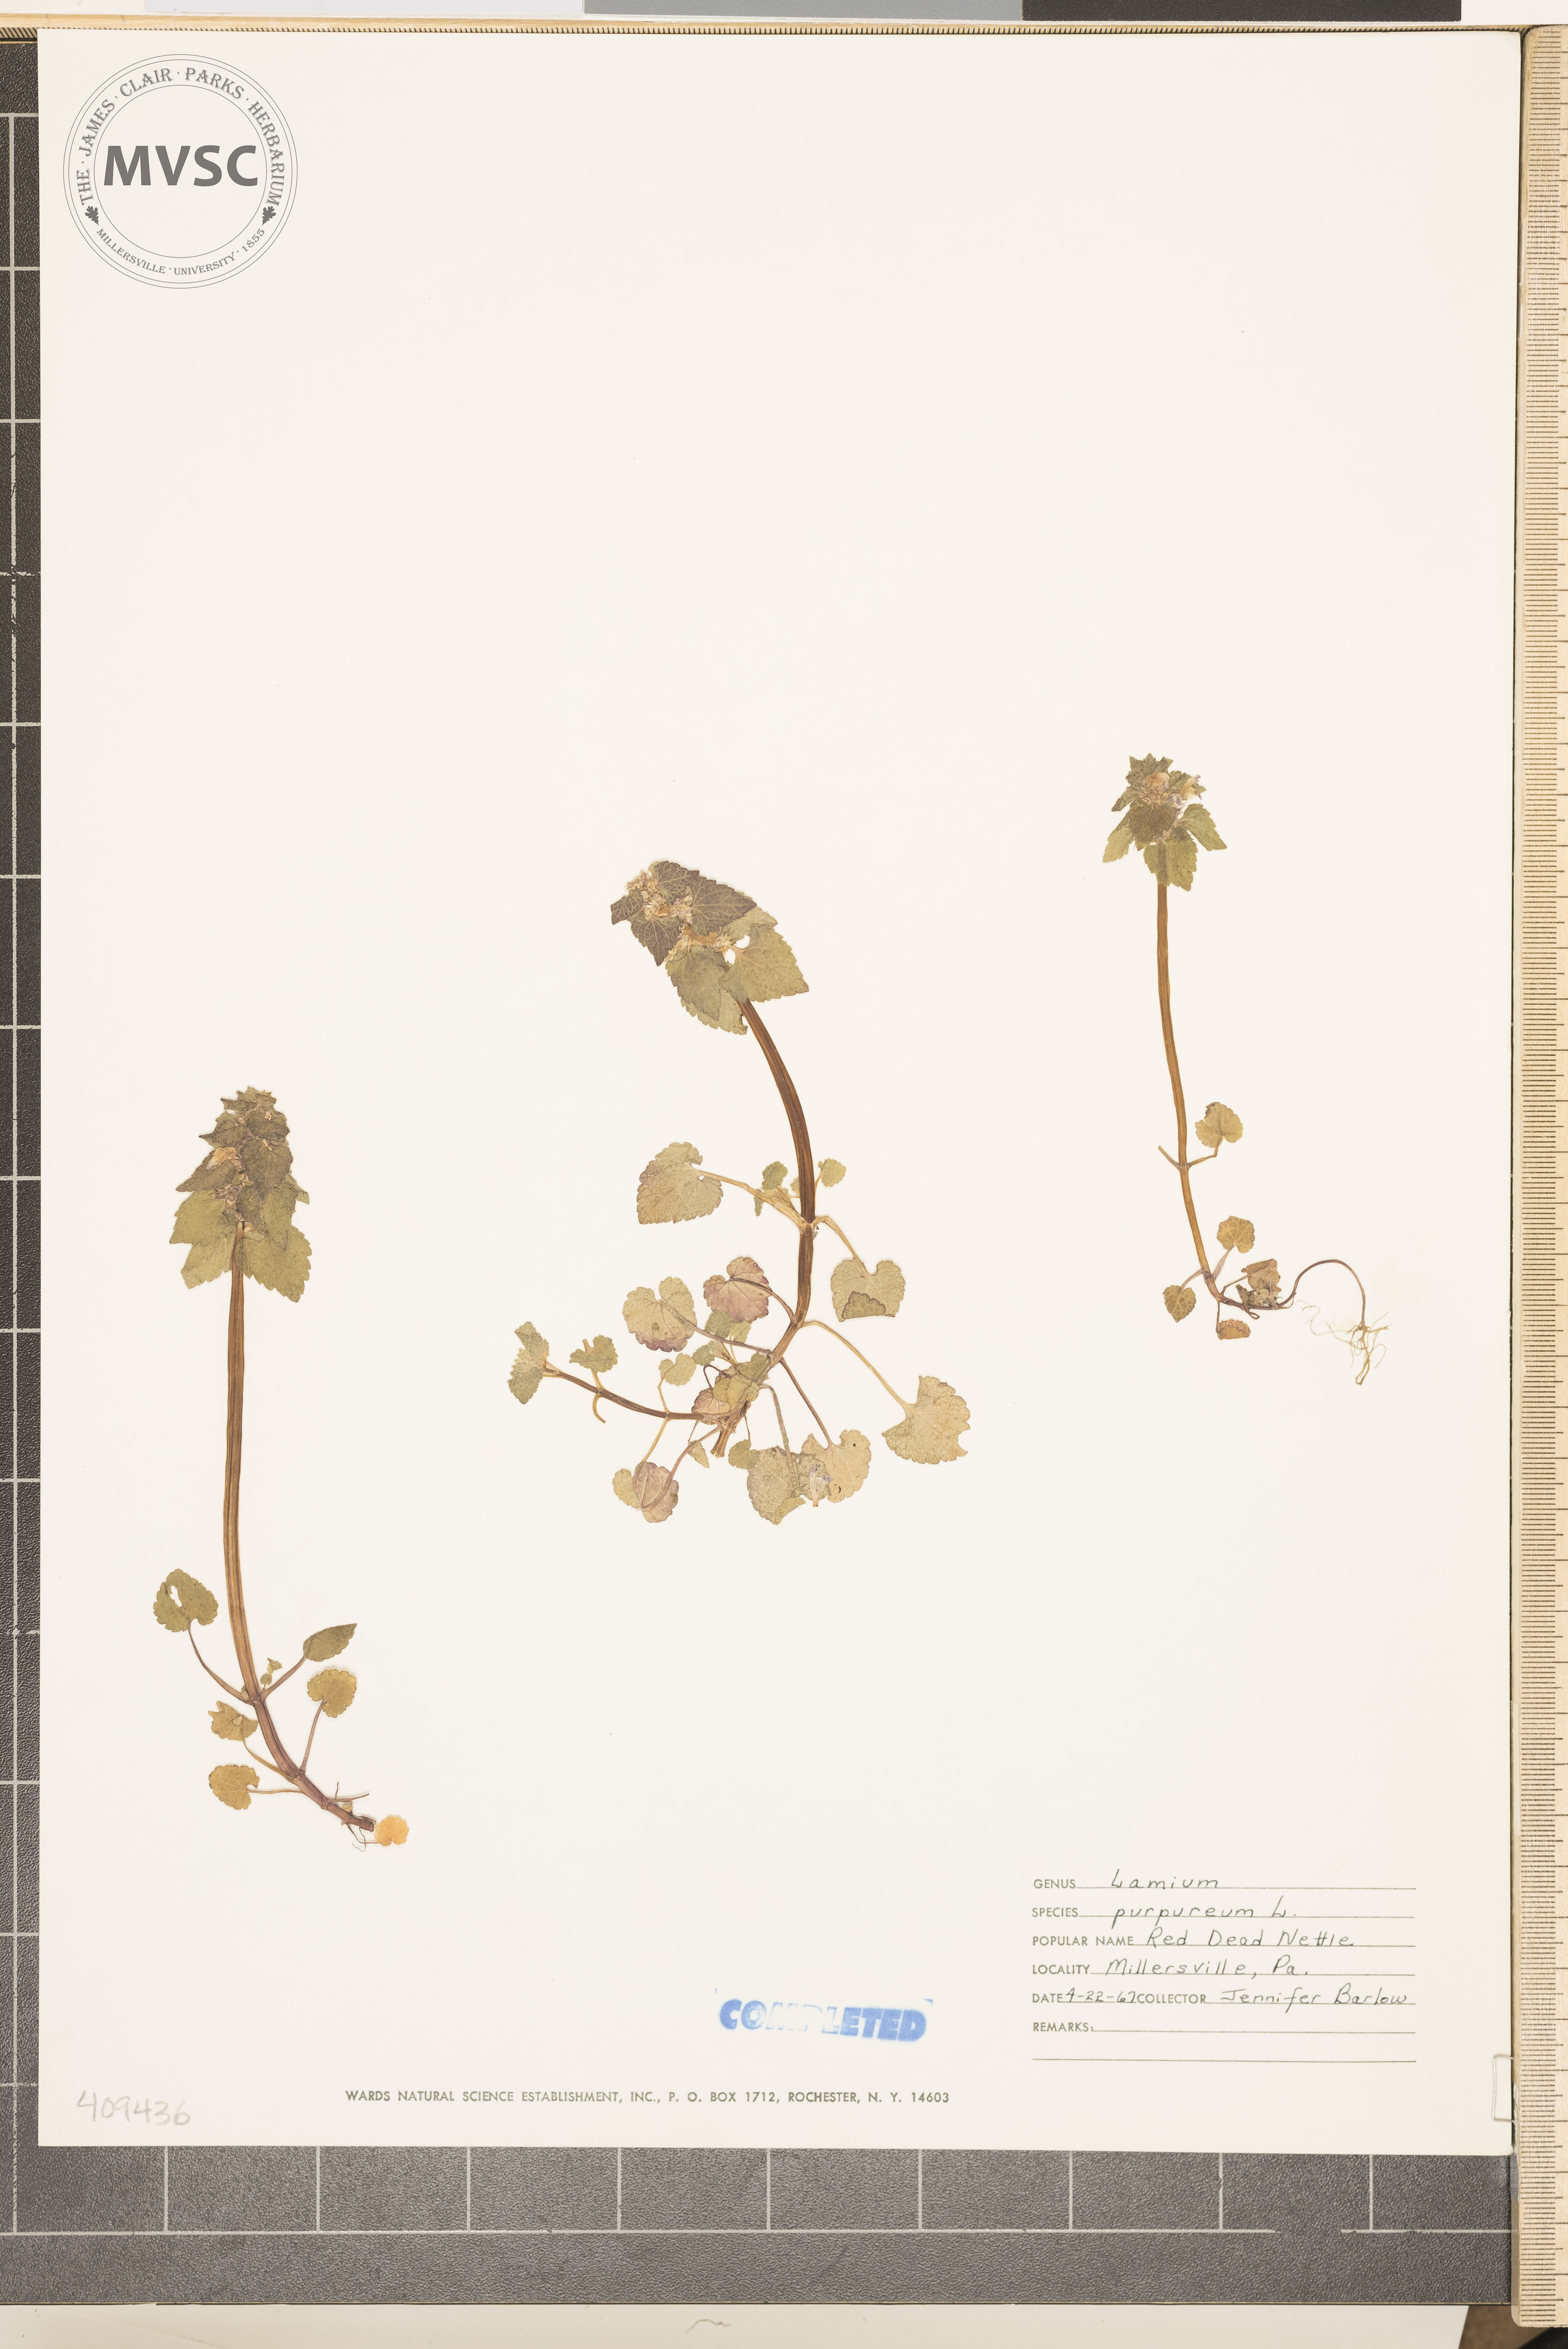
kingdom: Plantae
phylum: Tracheophyta
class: Magnoliopsida
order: Lamiales
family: Lamiaceae
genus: Lamium
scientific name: Lamium purpureum
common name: purple dead-nettle
